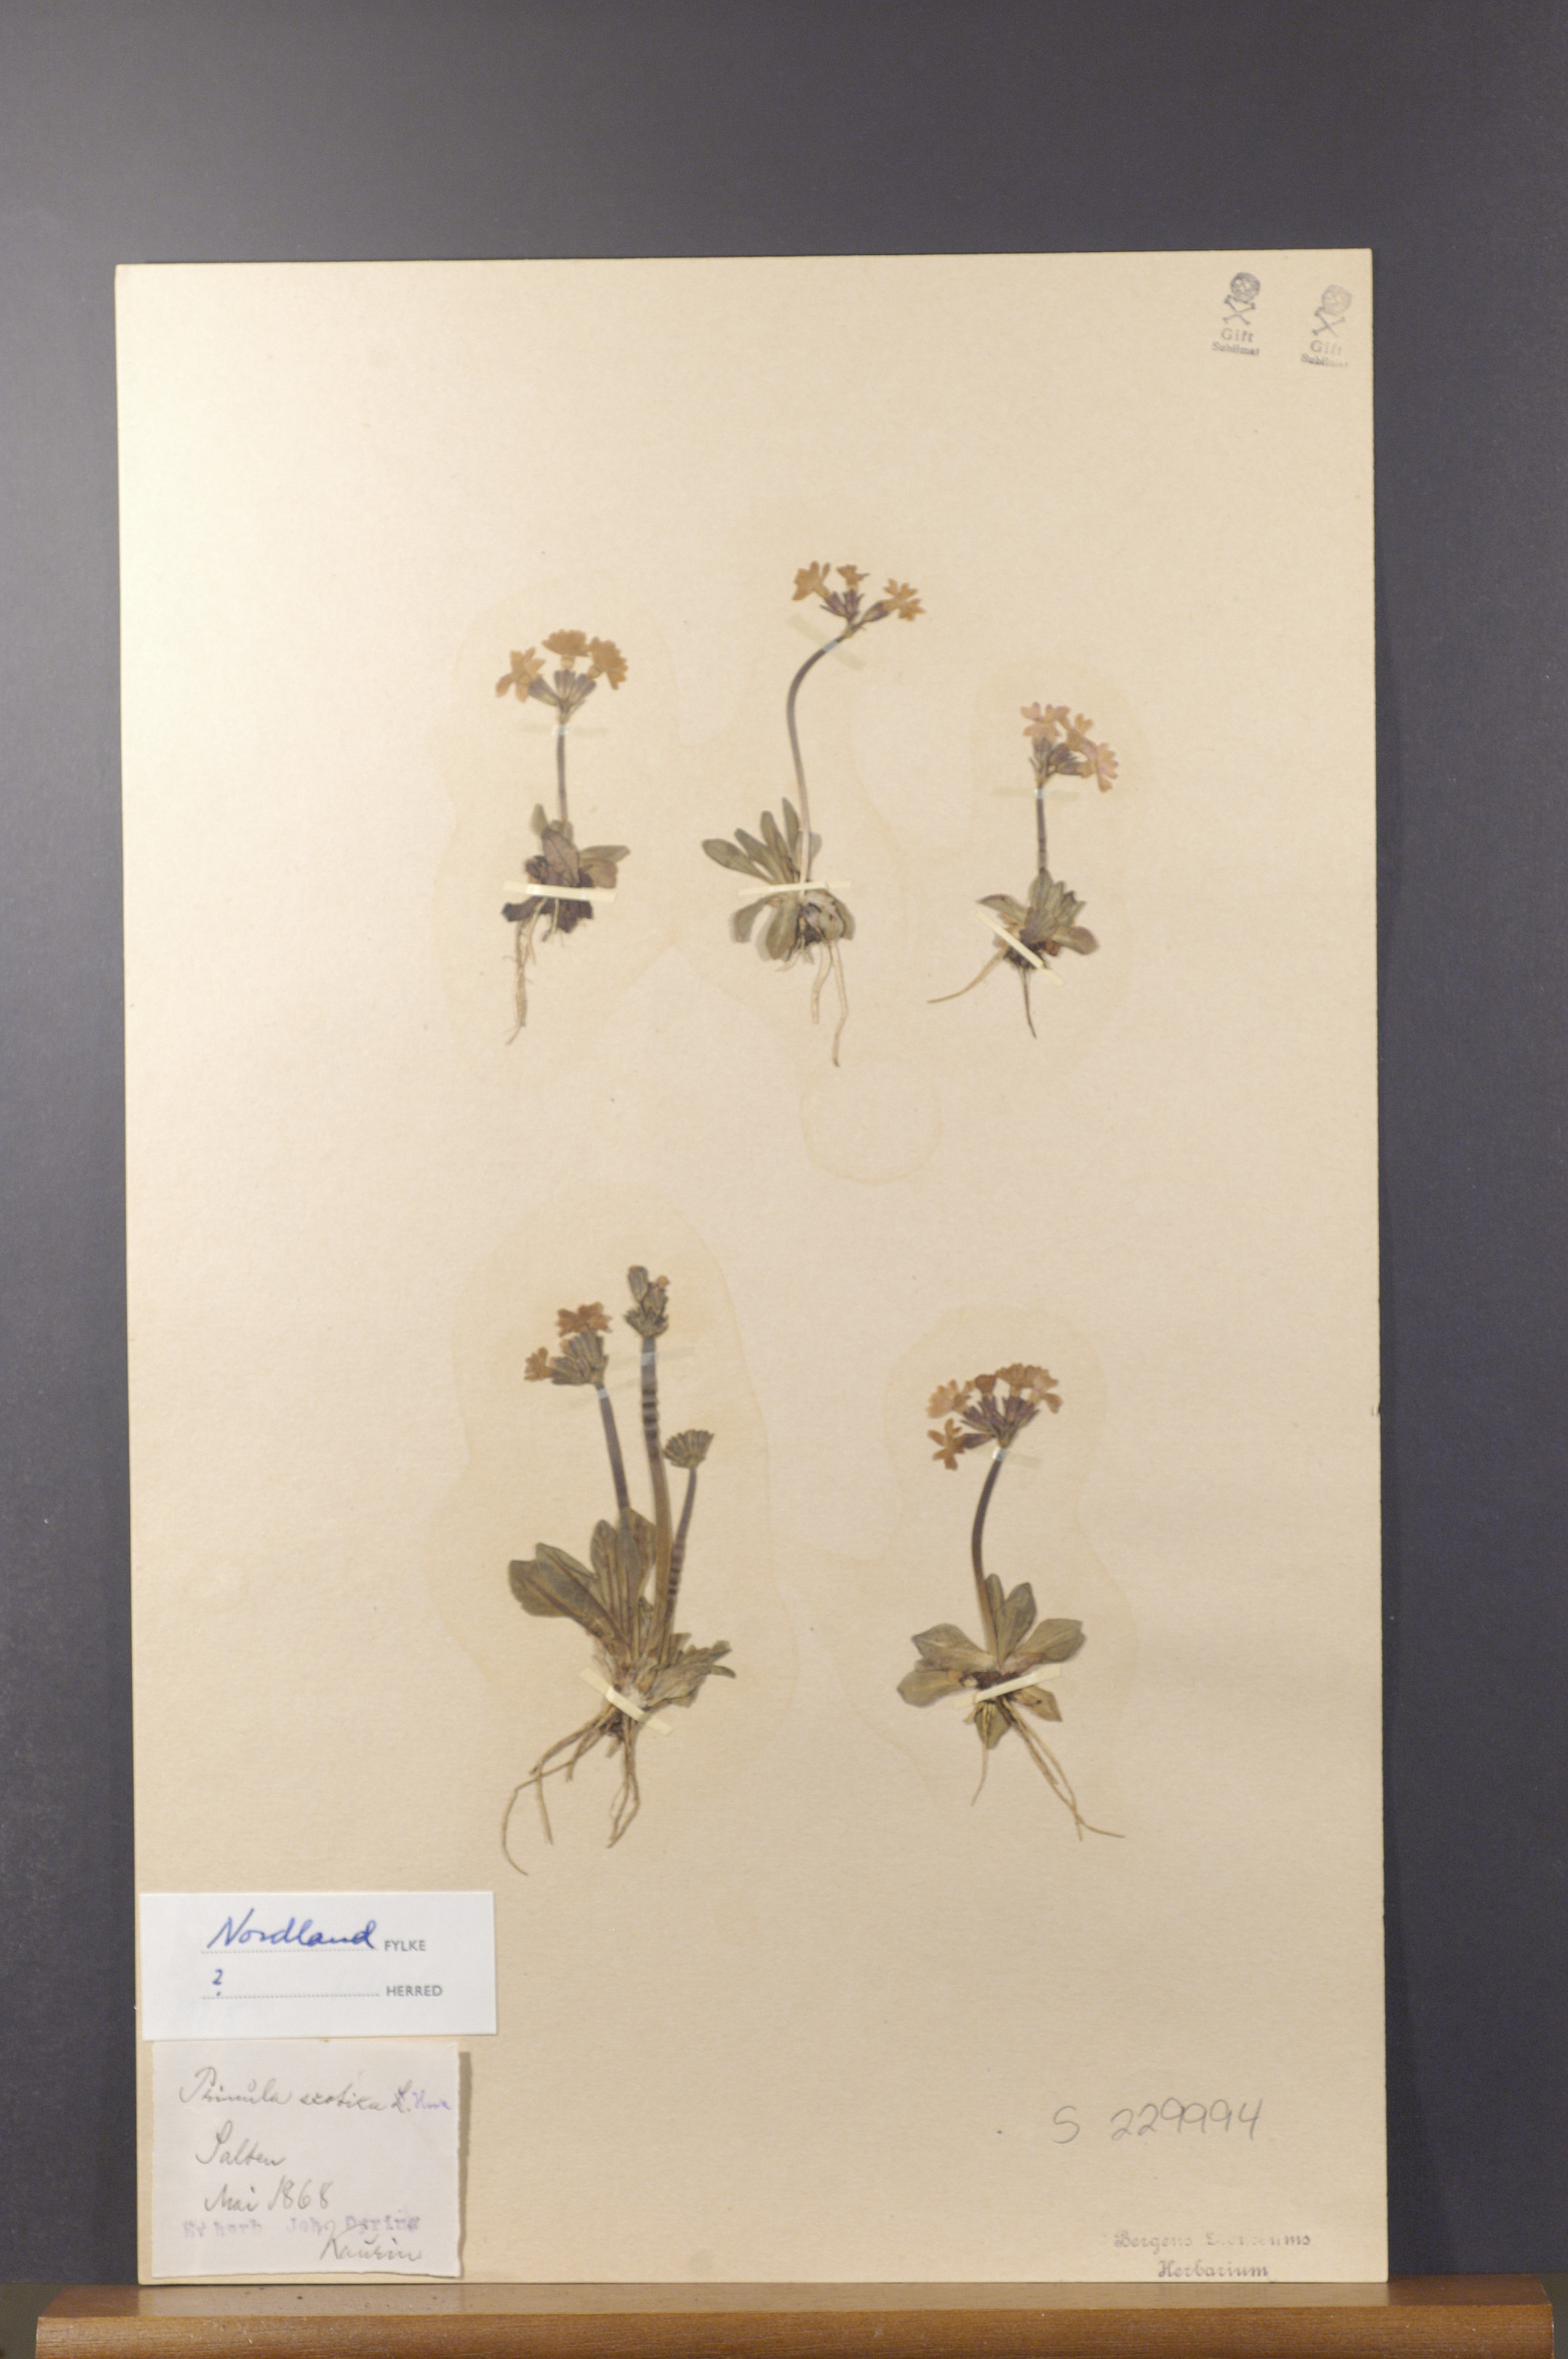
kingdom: Plantae
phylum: Tracheophyta
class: Magnoliopsida
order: Ericales
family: Primulaceae
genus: Primula
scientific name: Primula scotica
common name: Scottish primrose
